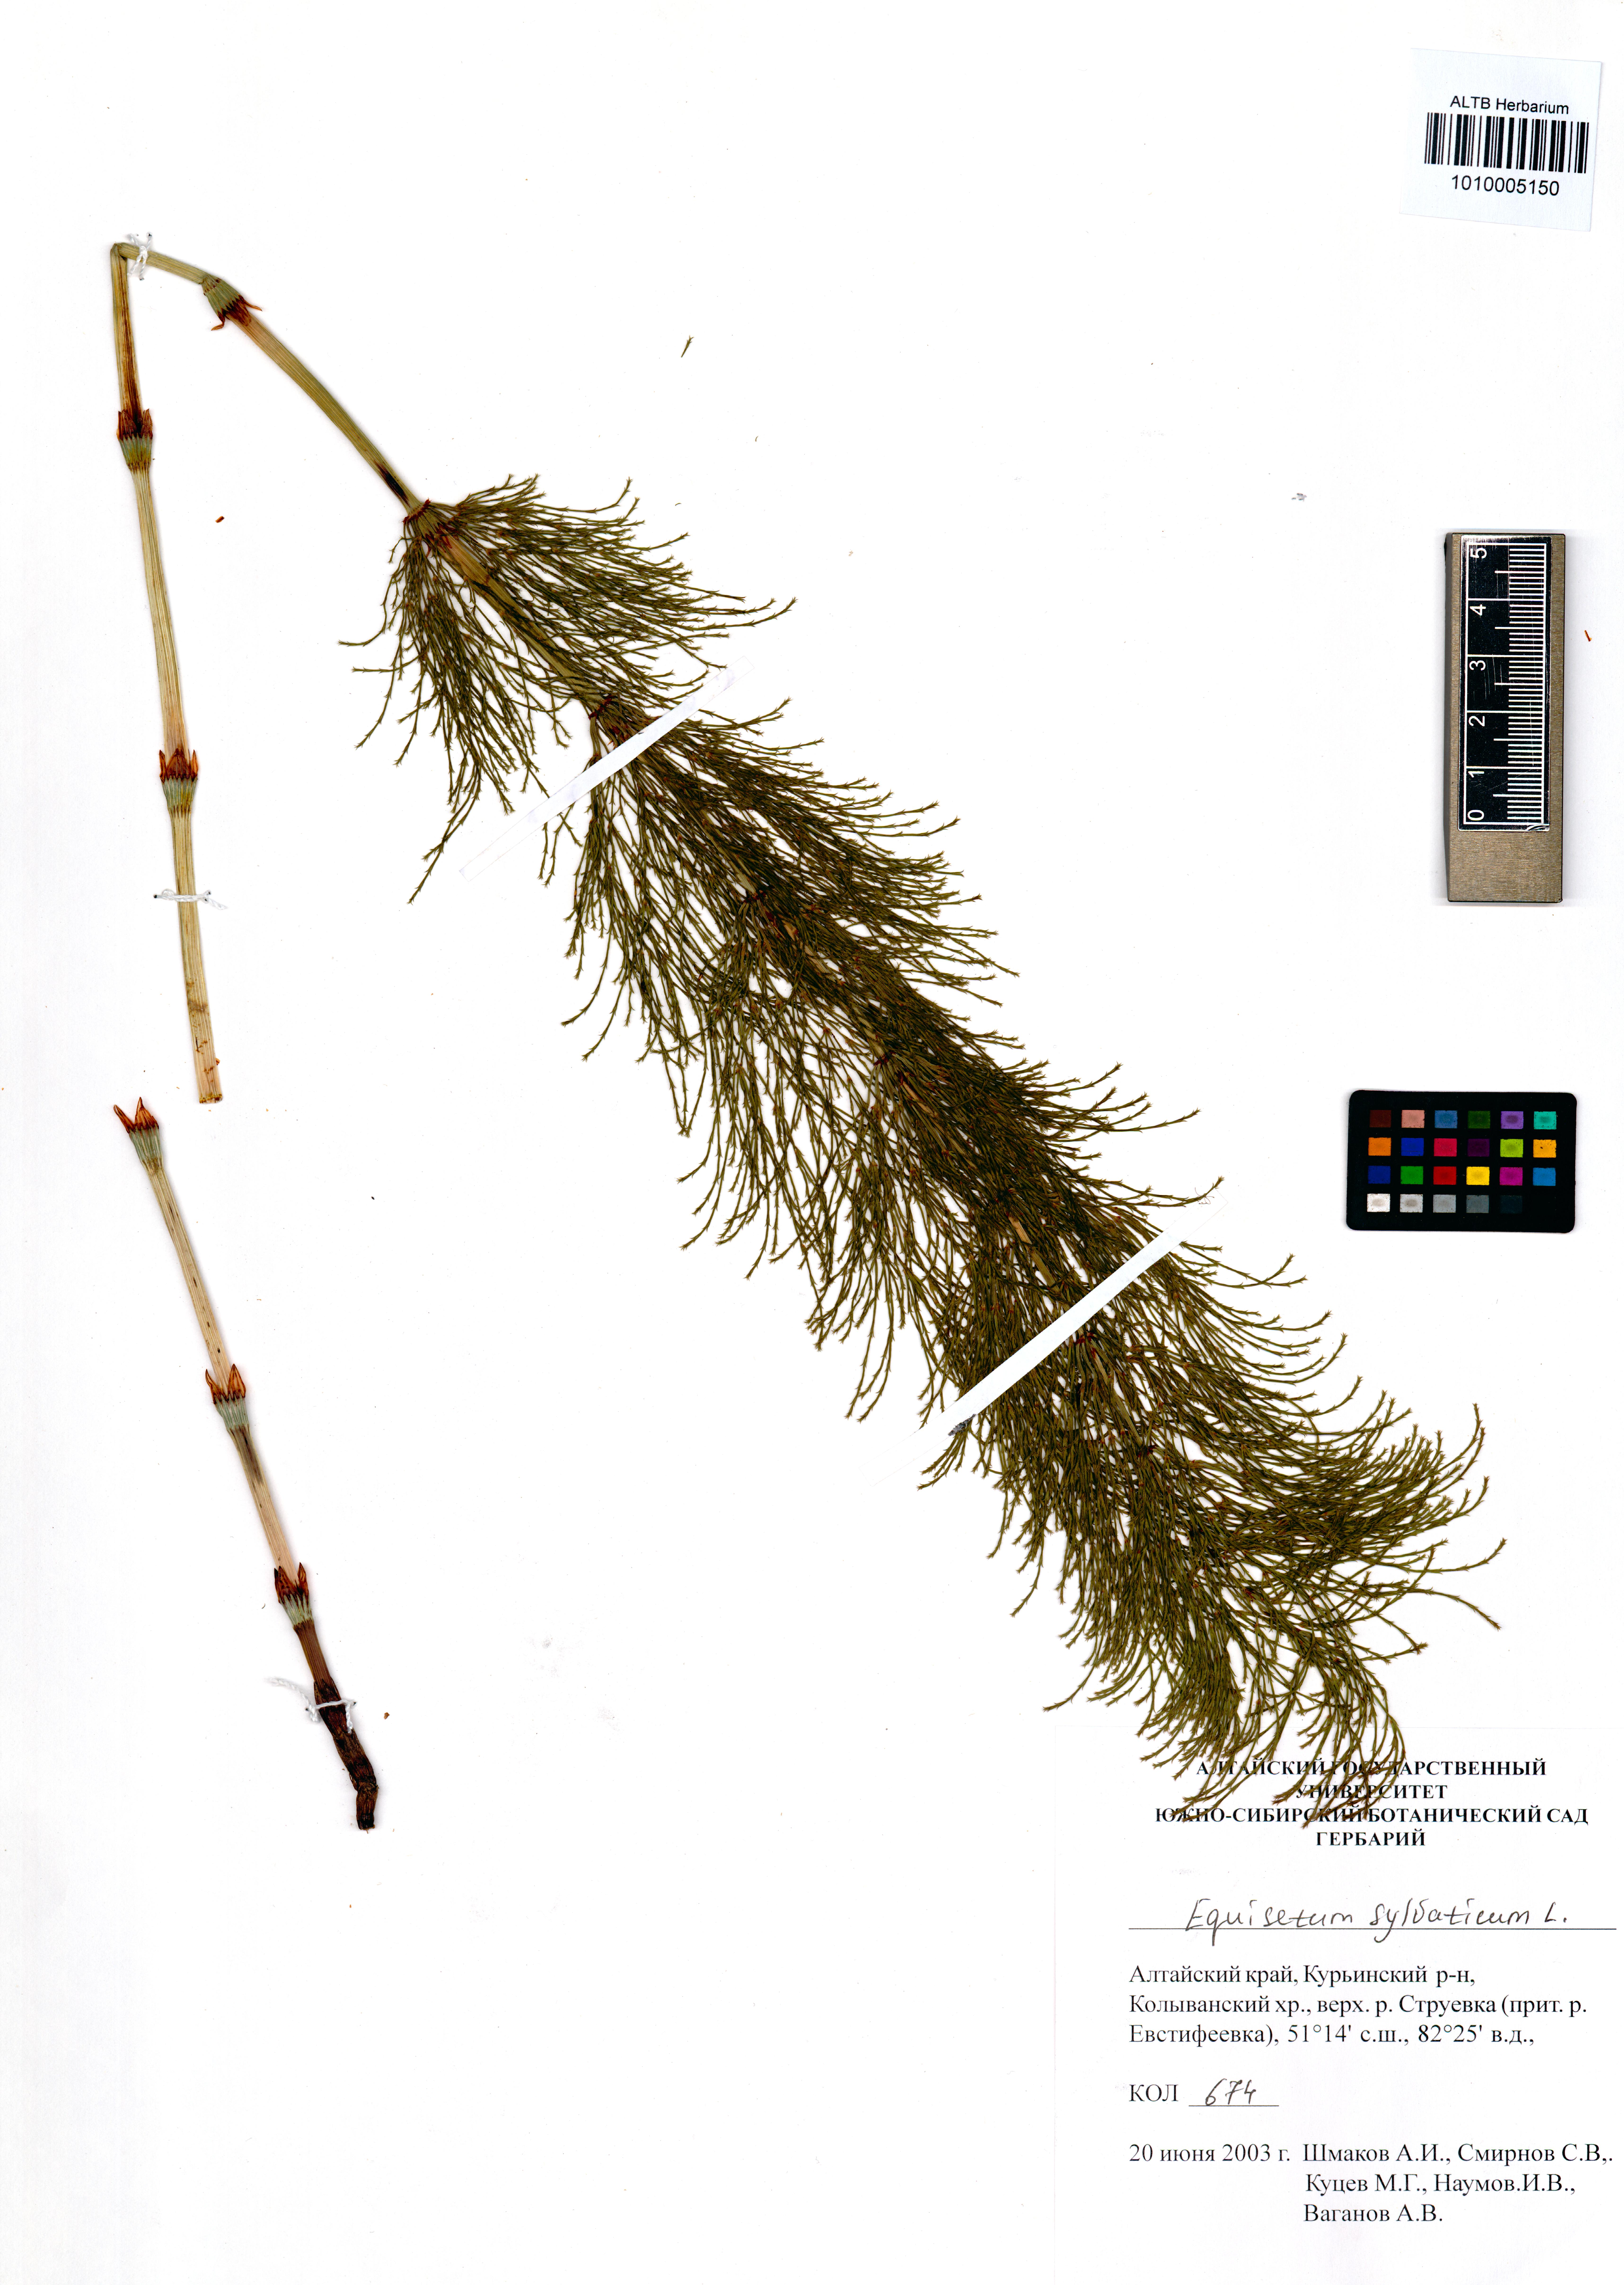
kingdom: Plantae
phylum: Tracheophyta
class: Polypodiopsida
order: Equisetales
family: Equisetaceae
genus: Equisetum
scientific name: Equisetum sylvaticum
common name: Wood horsetail
